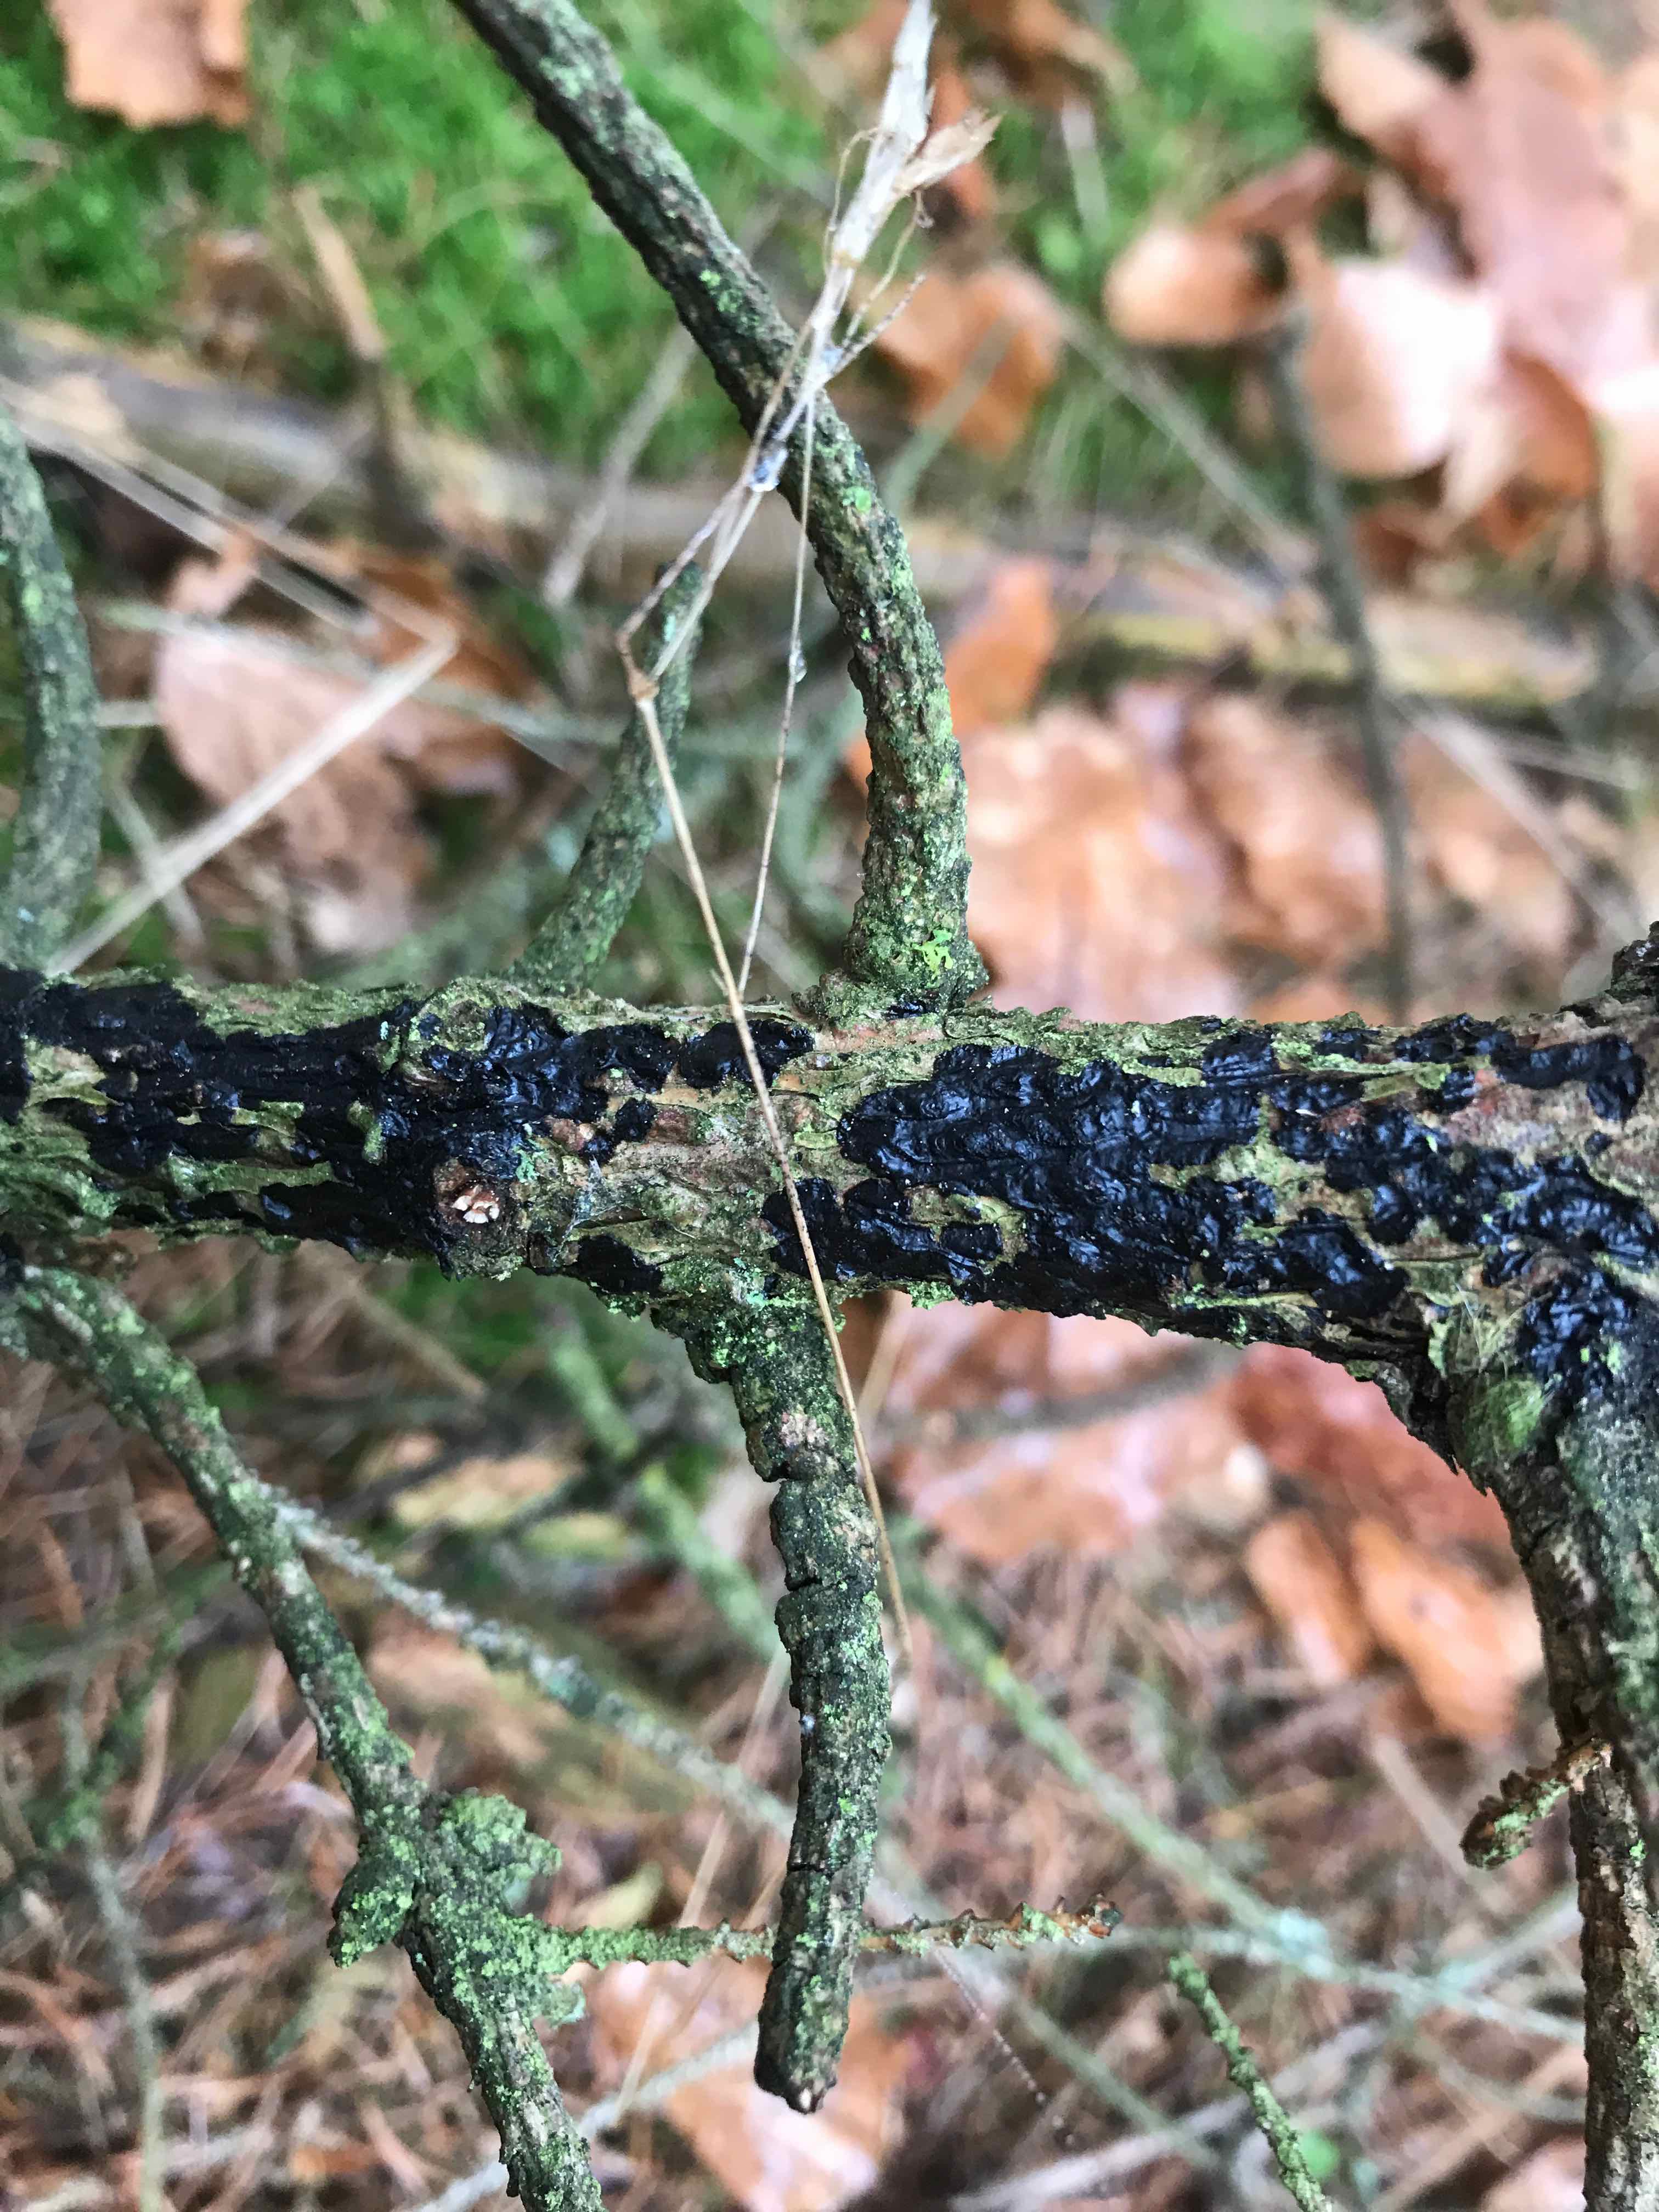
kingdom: Fungi
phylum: Basidiomycota
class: Agaricomycetes
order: Auriculariales
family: Auriculariaceae
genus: Exidia
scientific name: Exidia pithya
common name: gran-bævretop
